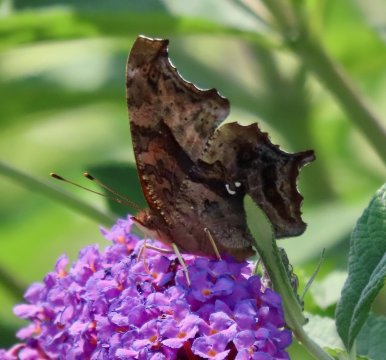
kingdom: Animalia
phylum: Arthropoda
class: Insecta
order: Lepidoptera
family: Nymphalidae
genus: Polygonia
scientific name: Polygonia interrogationis
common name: Question Mark
